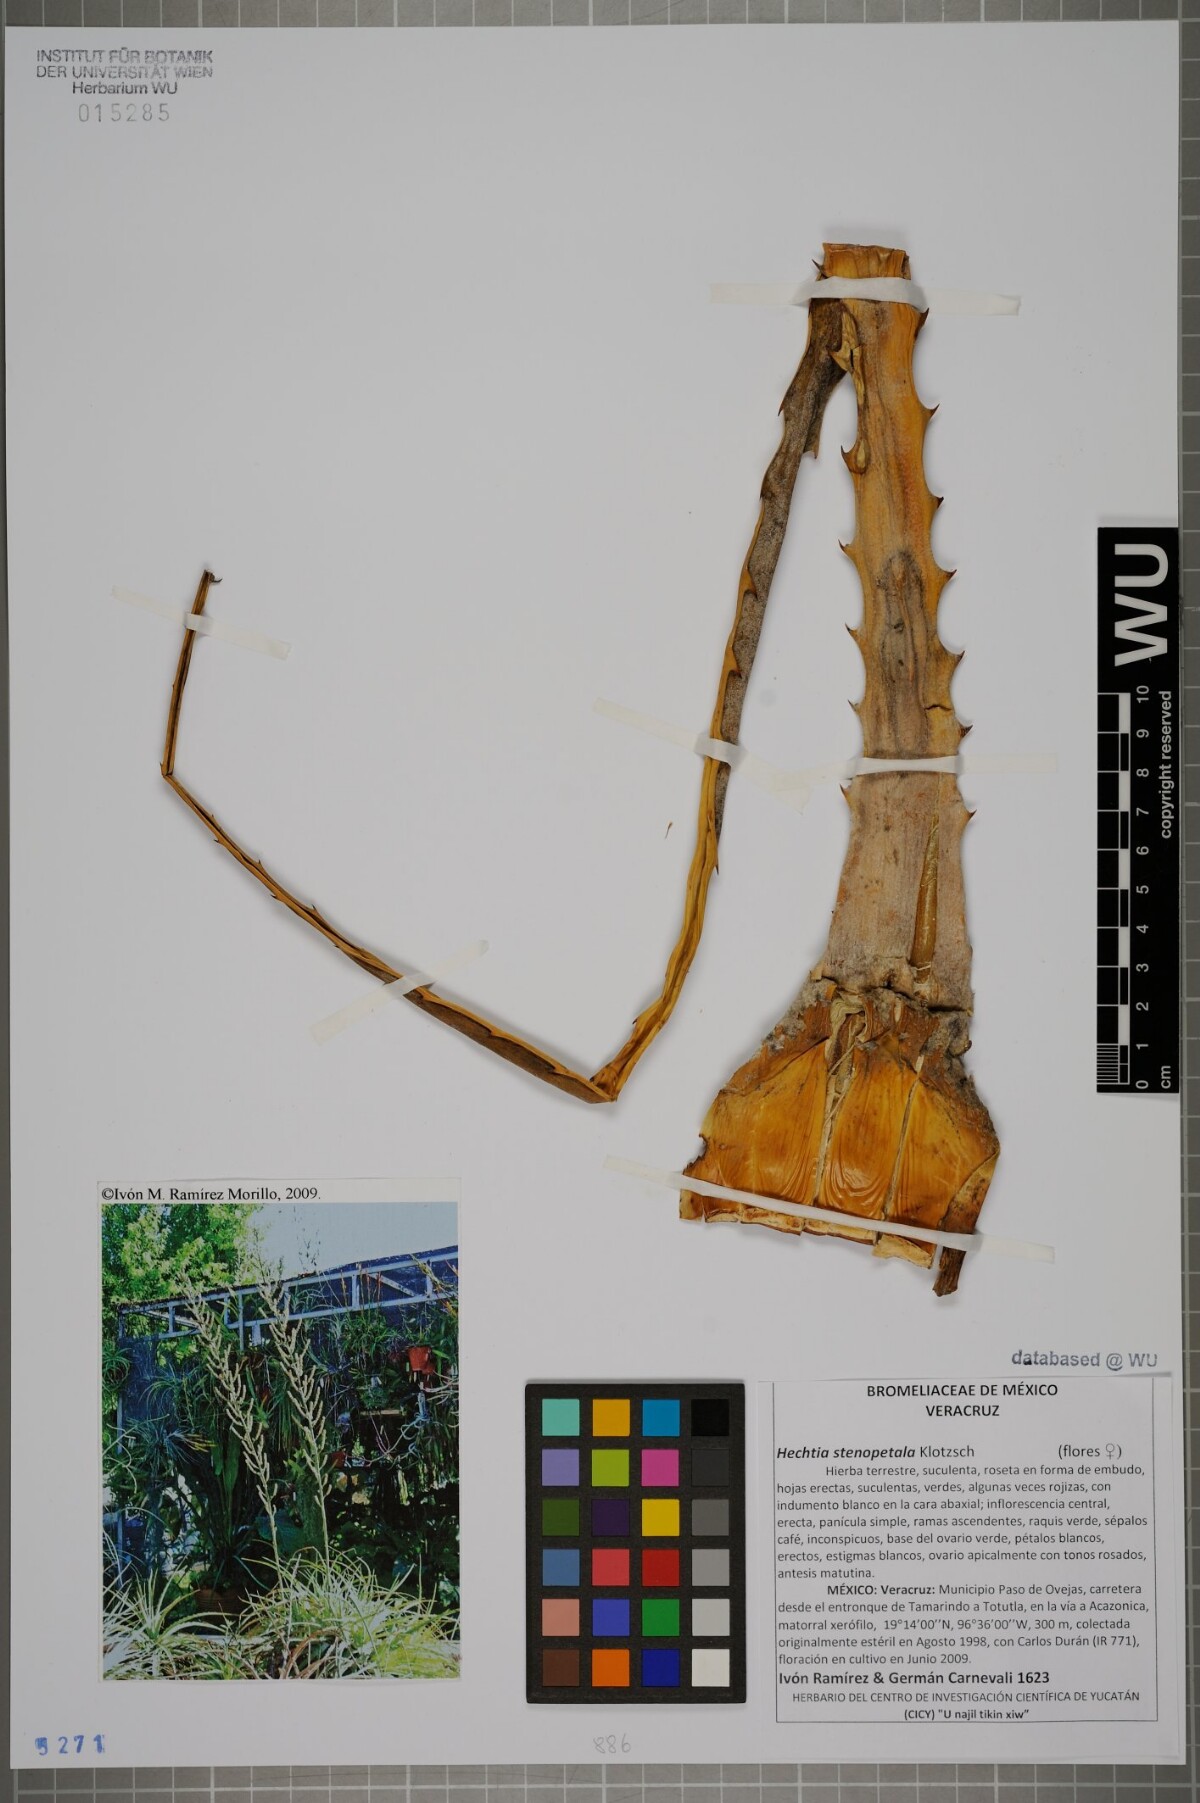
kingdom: Plantae
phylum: Tracheophyta
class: Liliopsida
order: Poales
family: Bromeliaceae
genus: Hechtia
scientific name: Hechtia stenopetala
